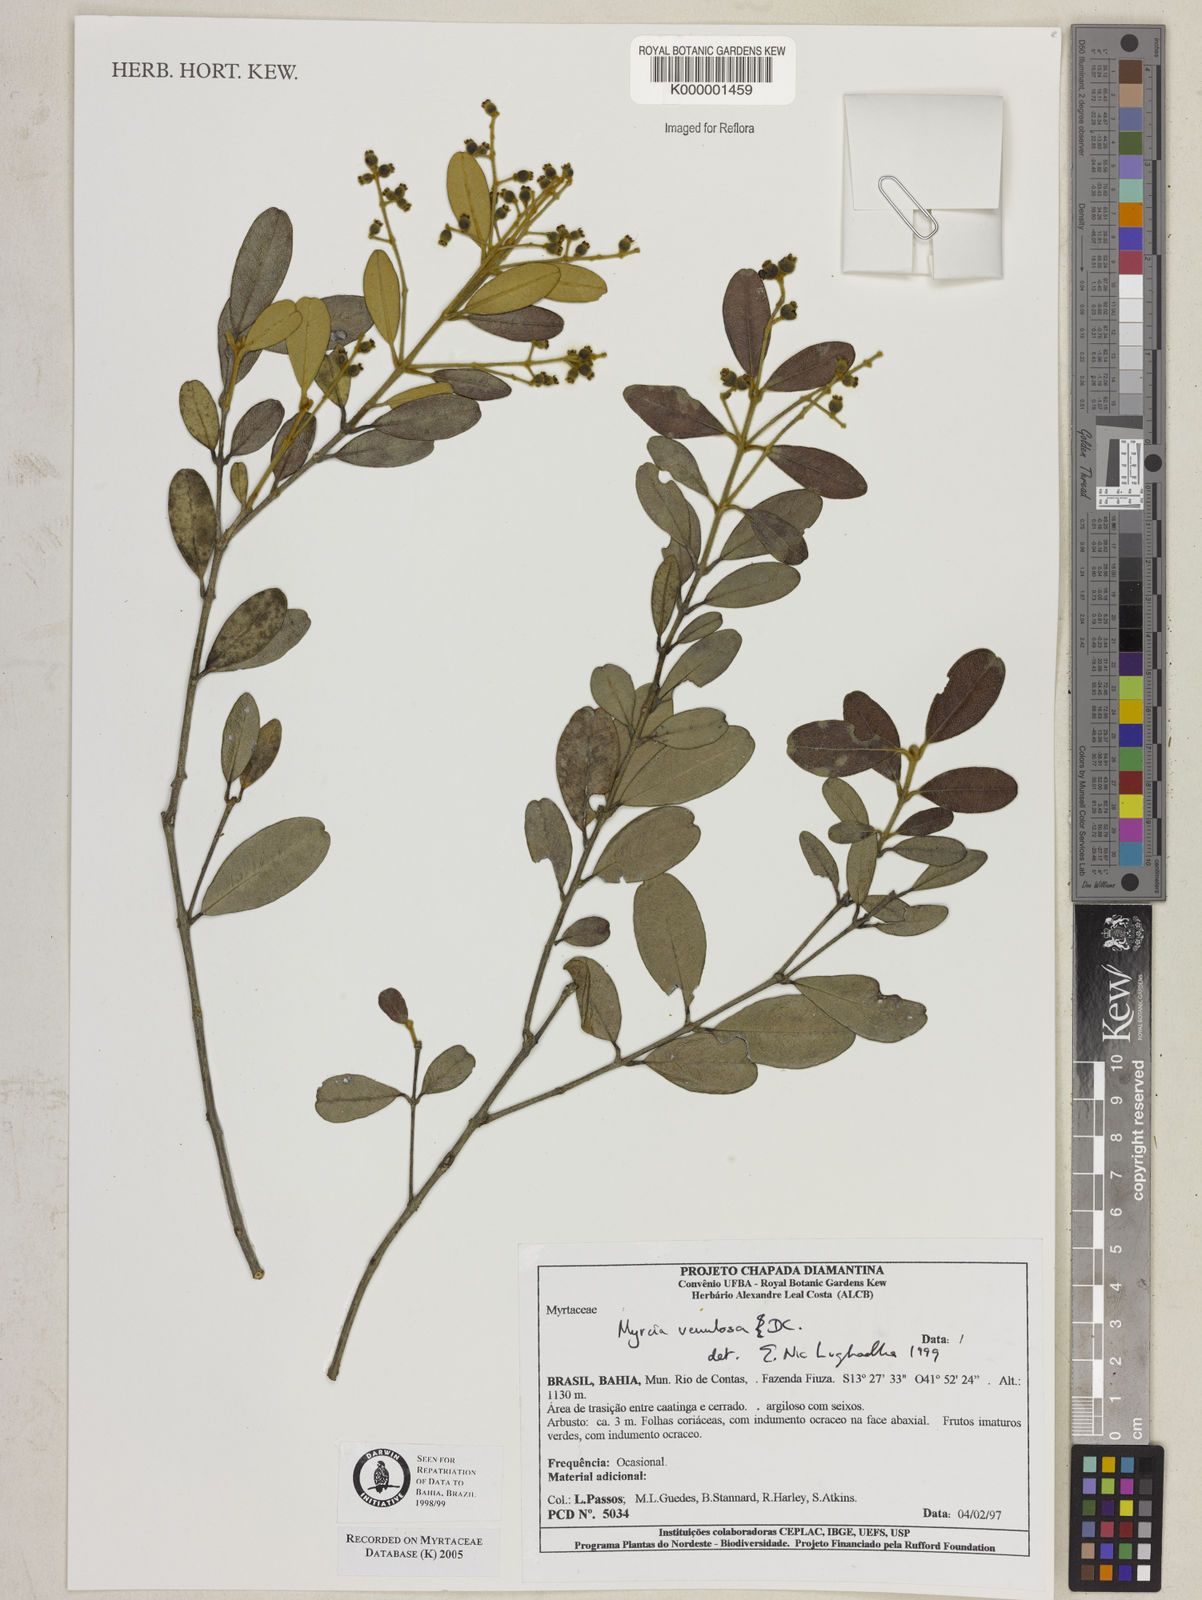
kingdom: Plantae
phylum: Tracheophyta
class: Magnoliopsida
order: Myrtales
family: Myrtaceae
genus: Myrcia
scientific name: Myrcia venulosa
